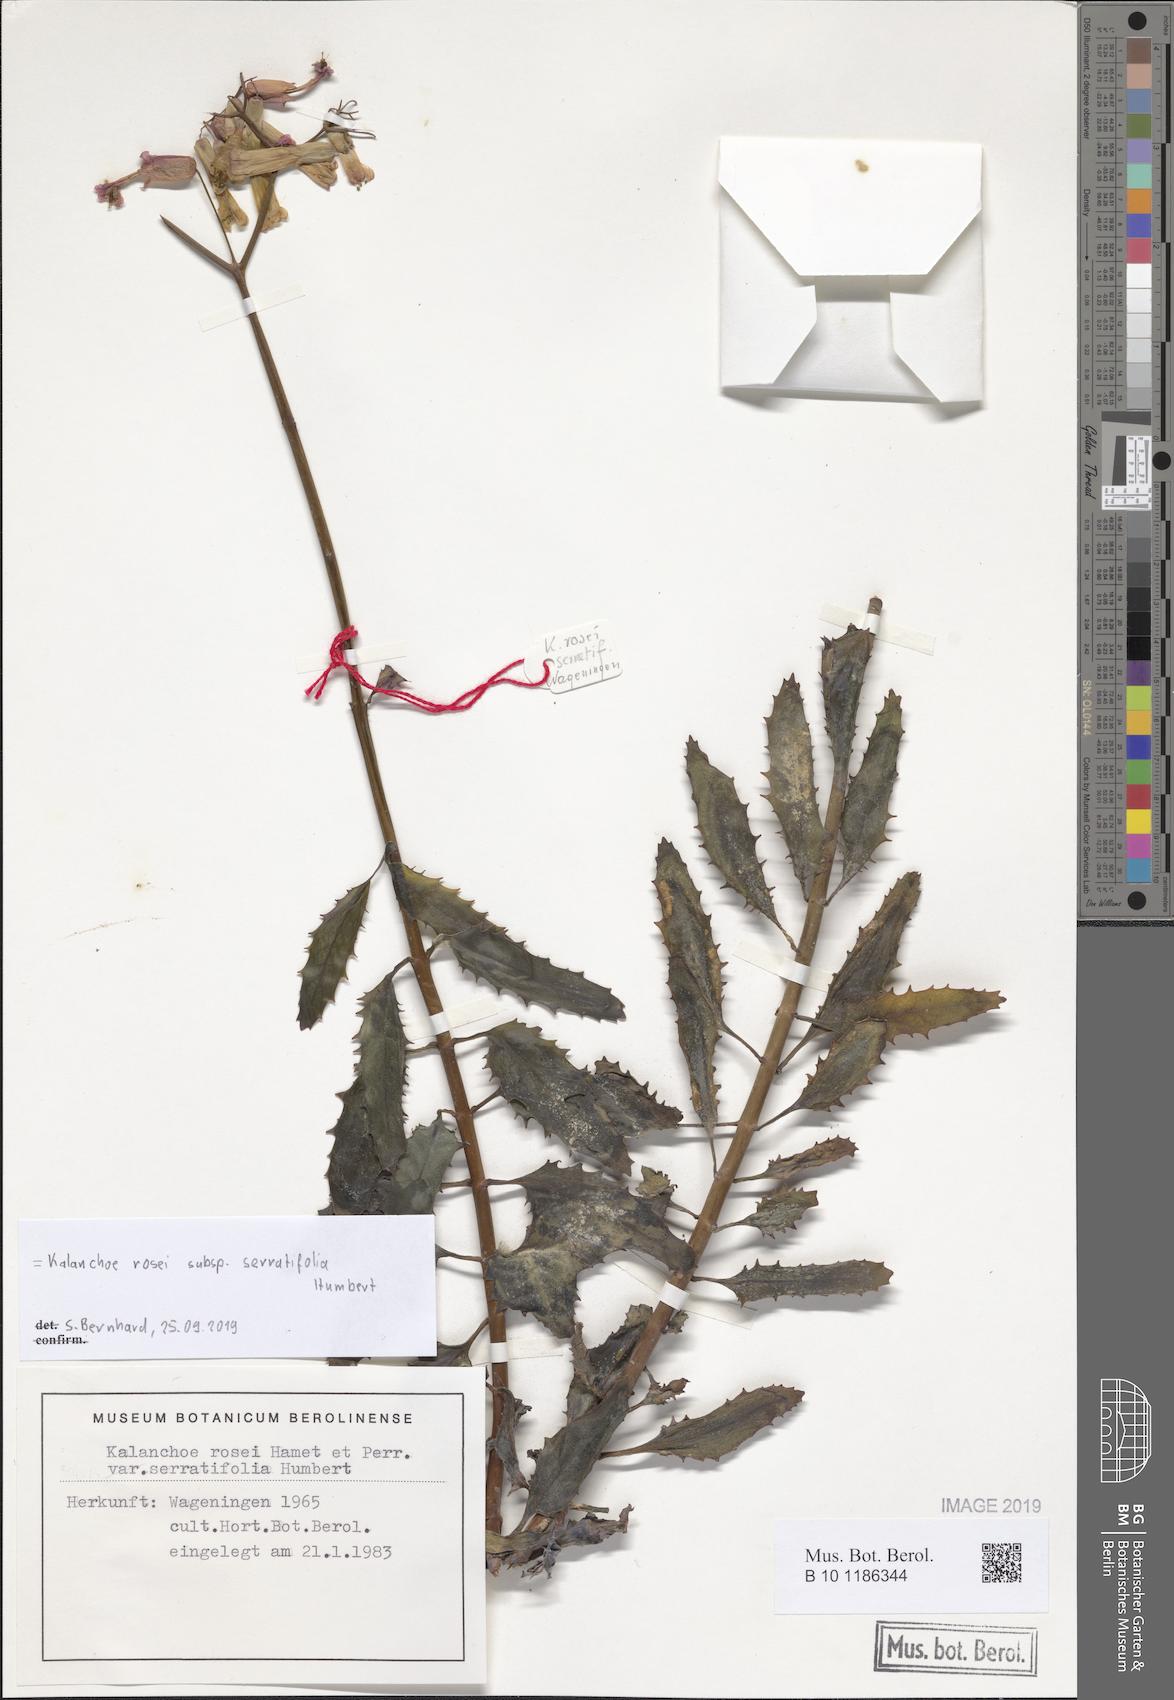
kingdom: Plantae
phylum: Tracheophyta
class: Magnoliopsida
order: Saxifragales
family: Crassulaceae
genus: Kalanchoe
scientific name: Kalanchoe rosei
